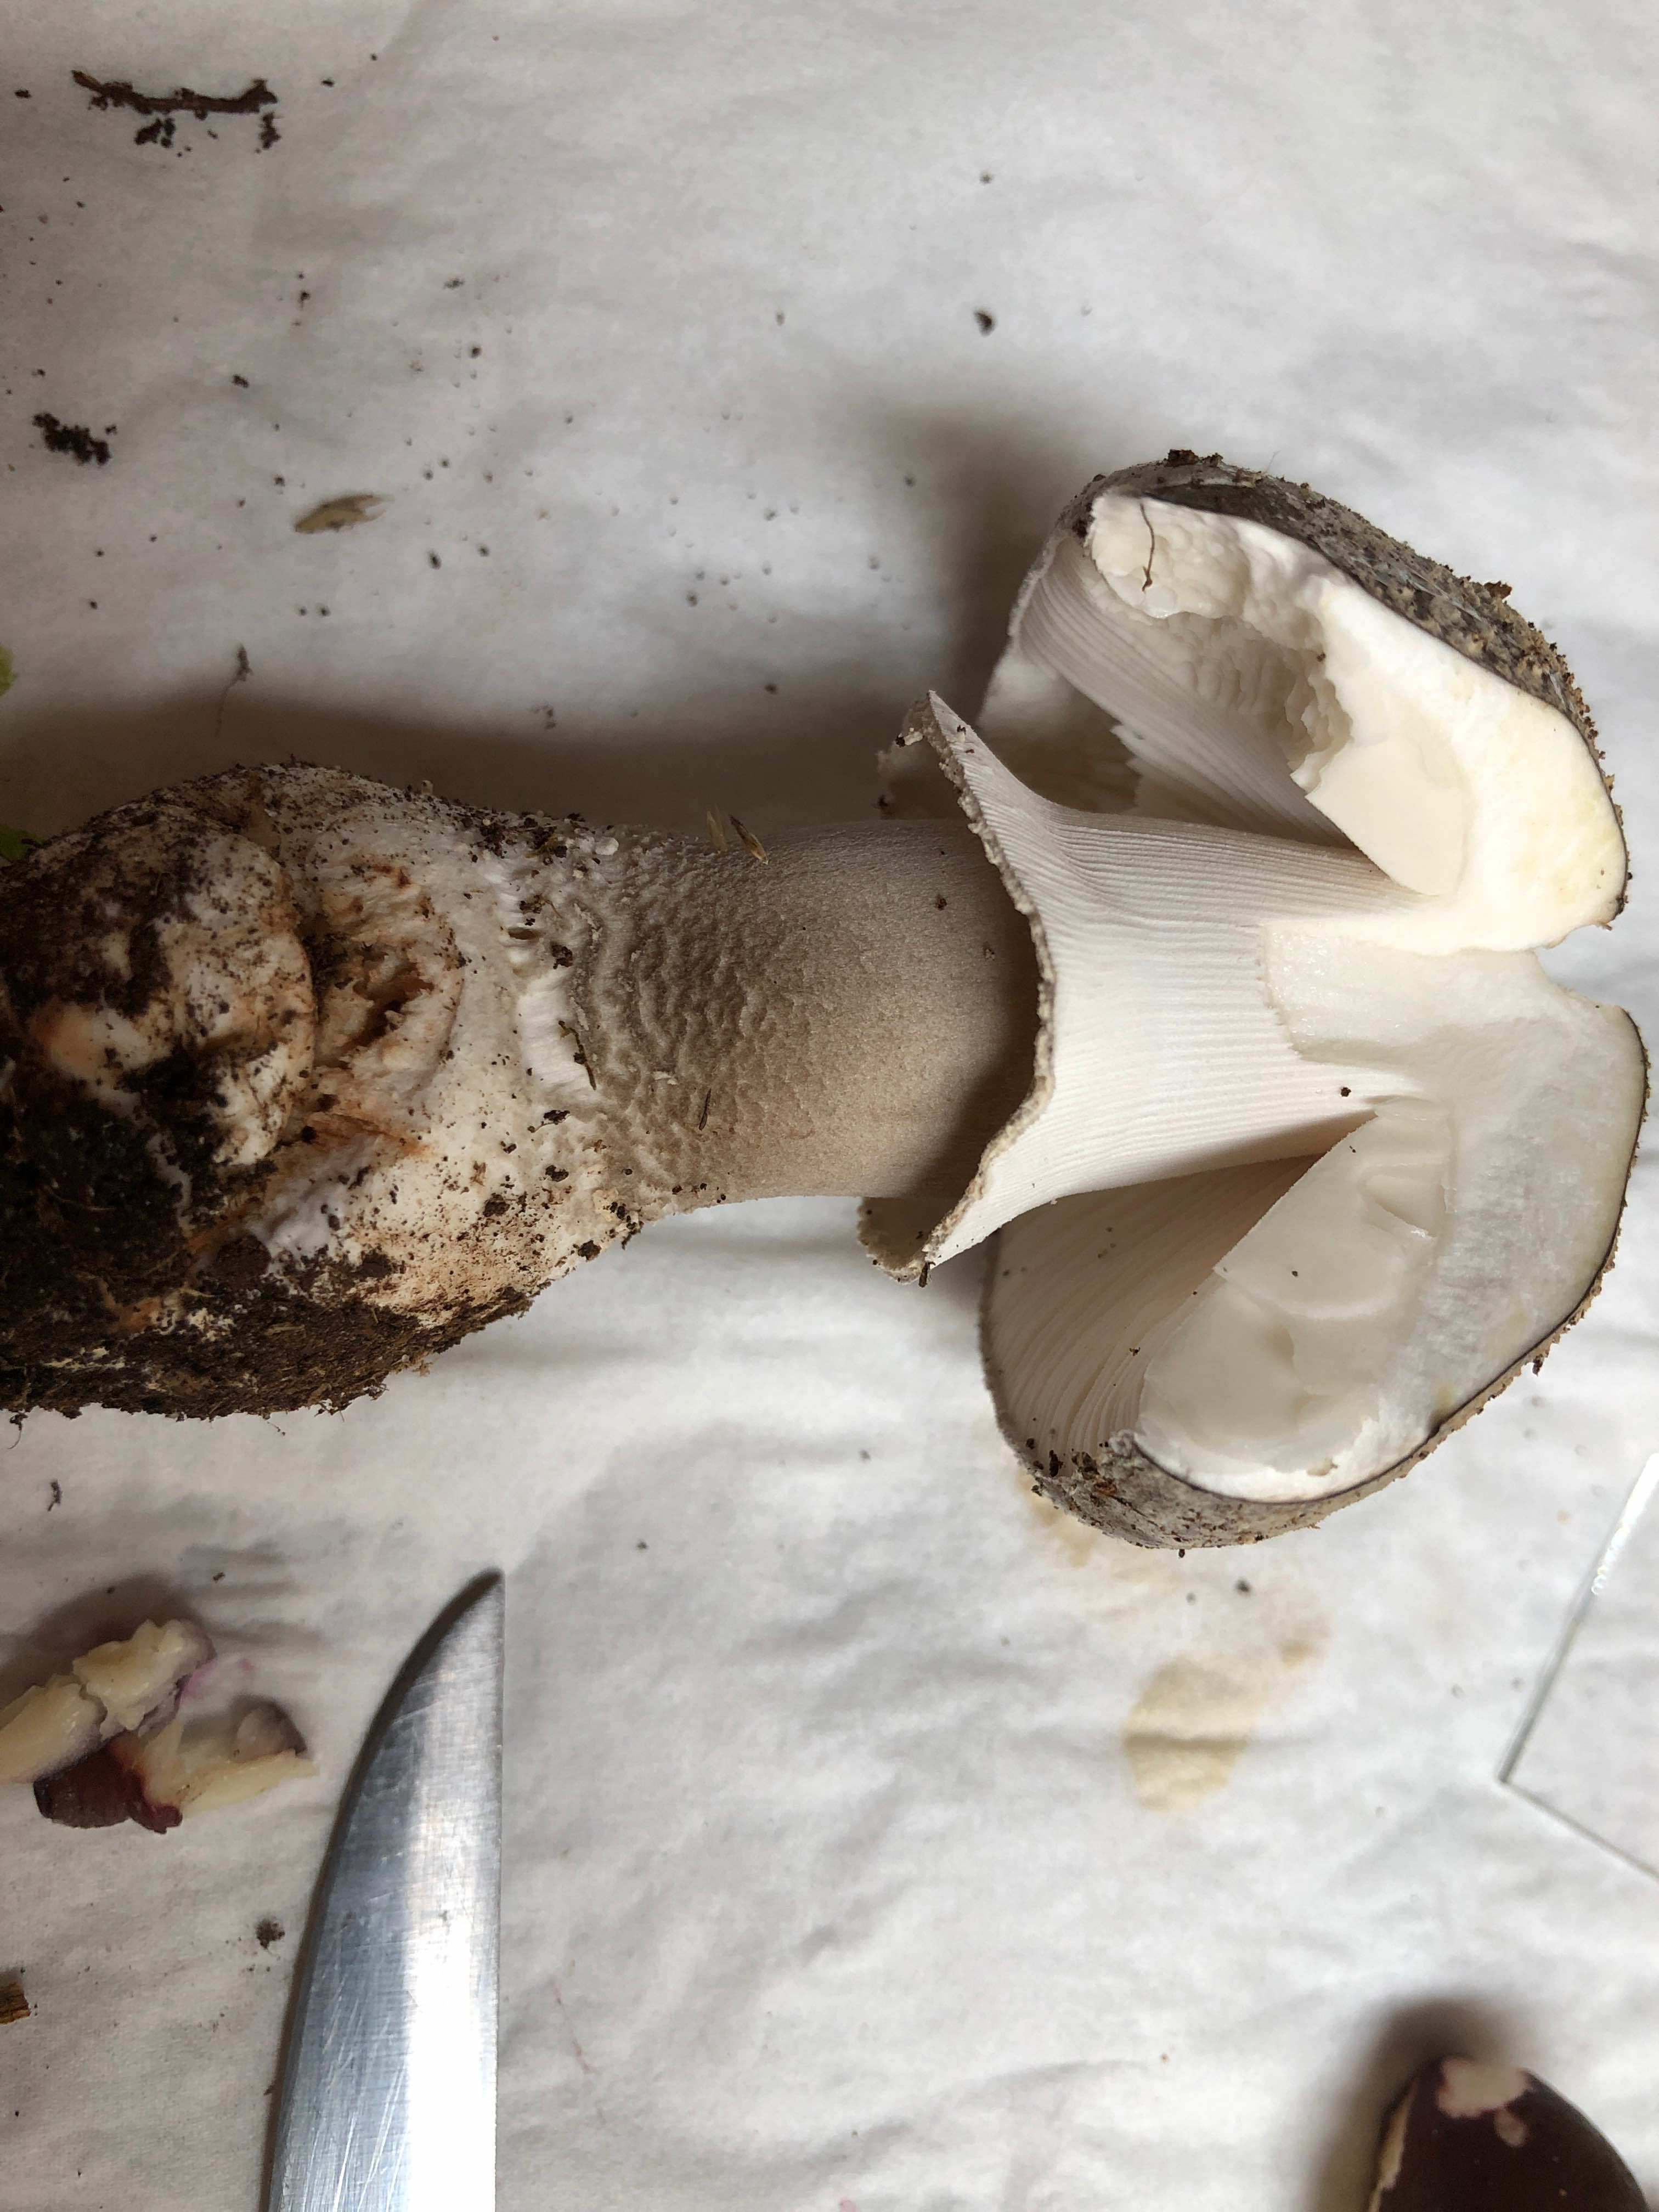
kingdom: Fungi
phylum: Basidiomycota
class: Agaricomycetes
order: Agaricales
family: Amanitaceae
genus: Amanita
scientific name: Amanita
